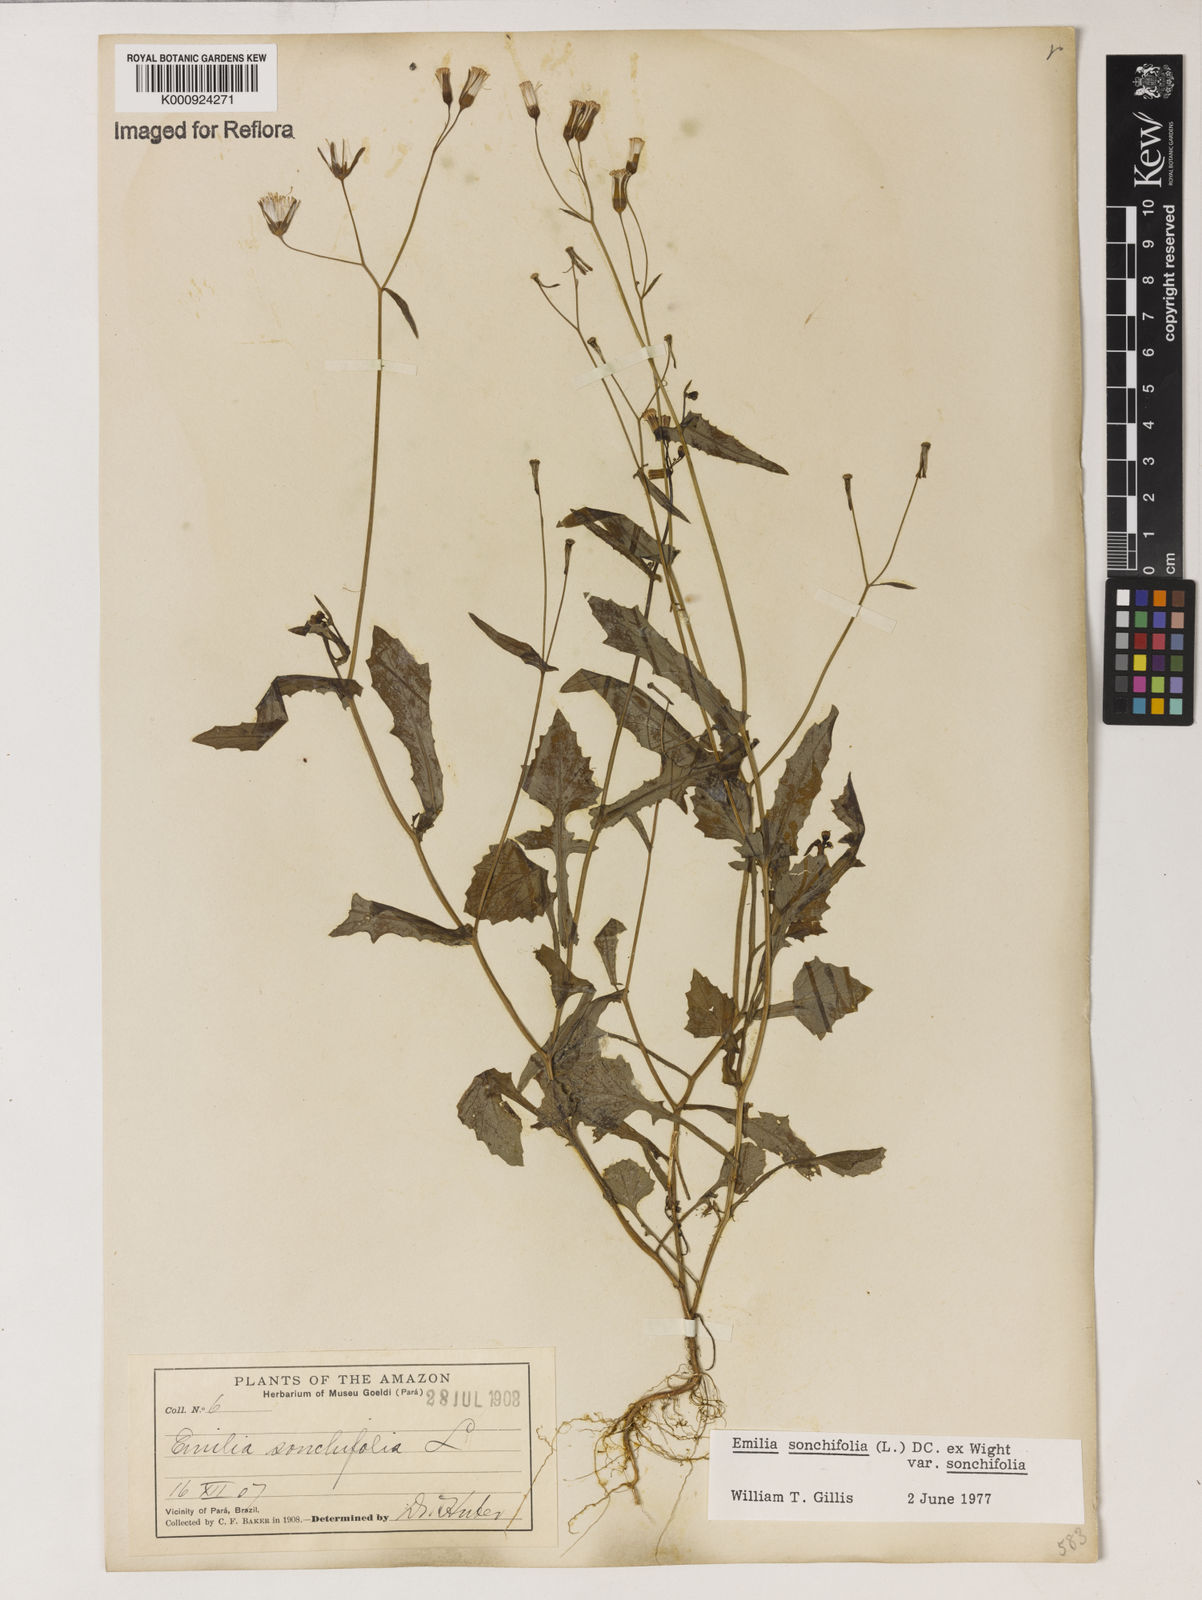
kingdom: Plantae
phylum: Tracheophyta
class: Magnoliopsida
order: Asterales
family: Asteraceae
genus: Emilia
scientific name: Emilia
